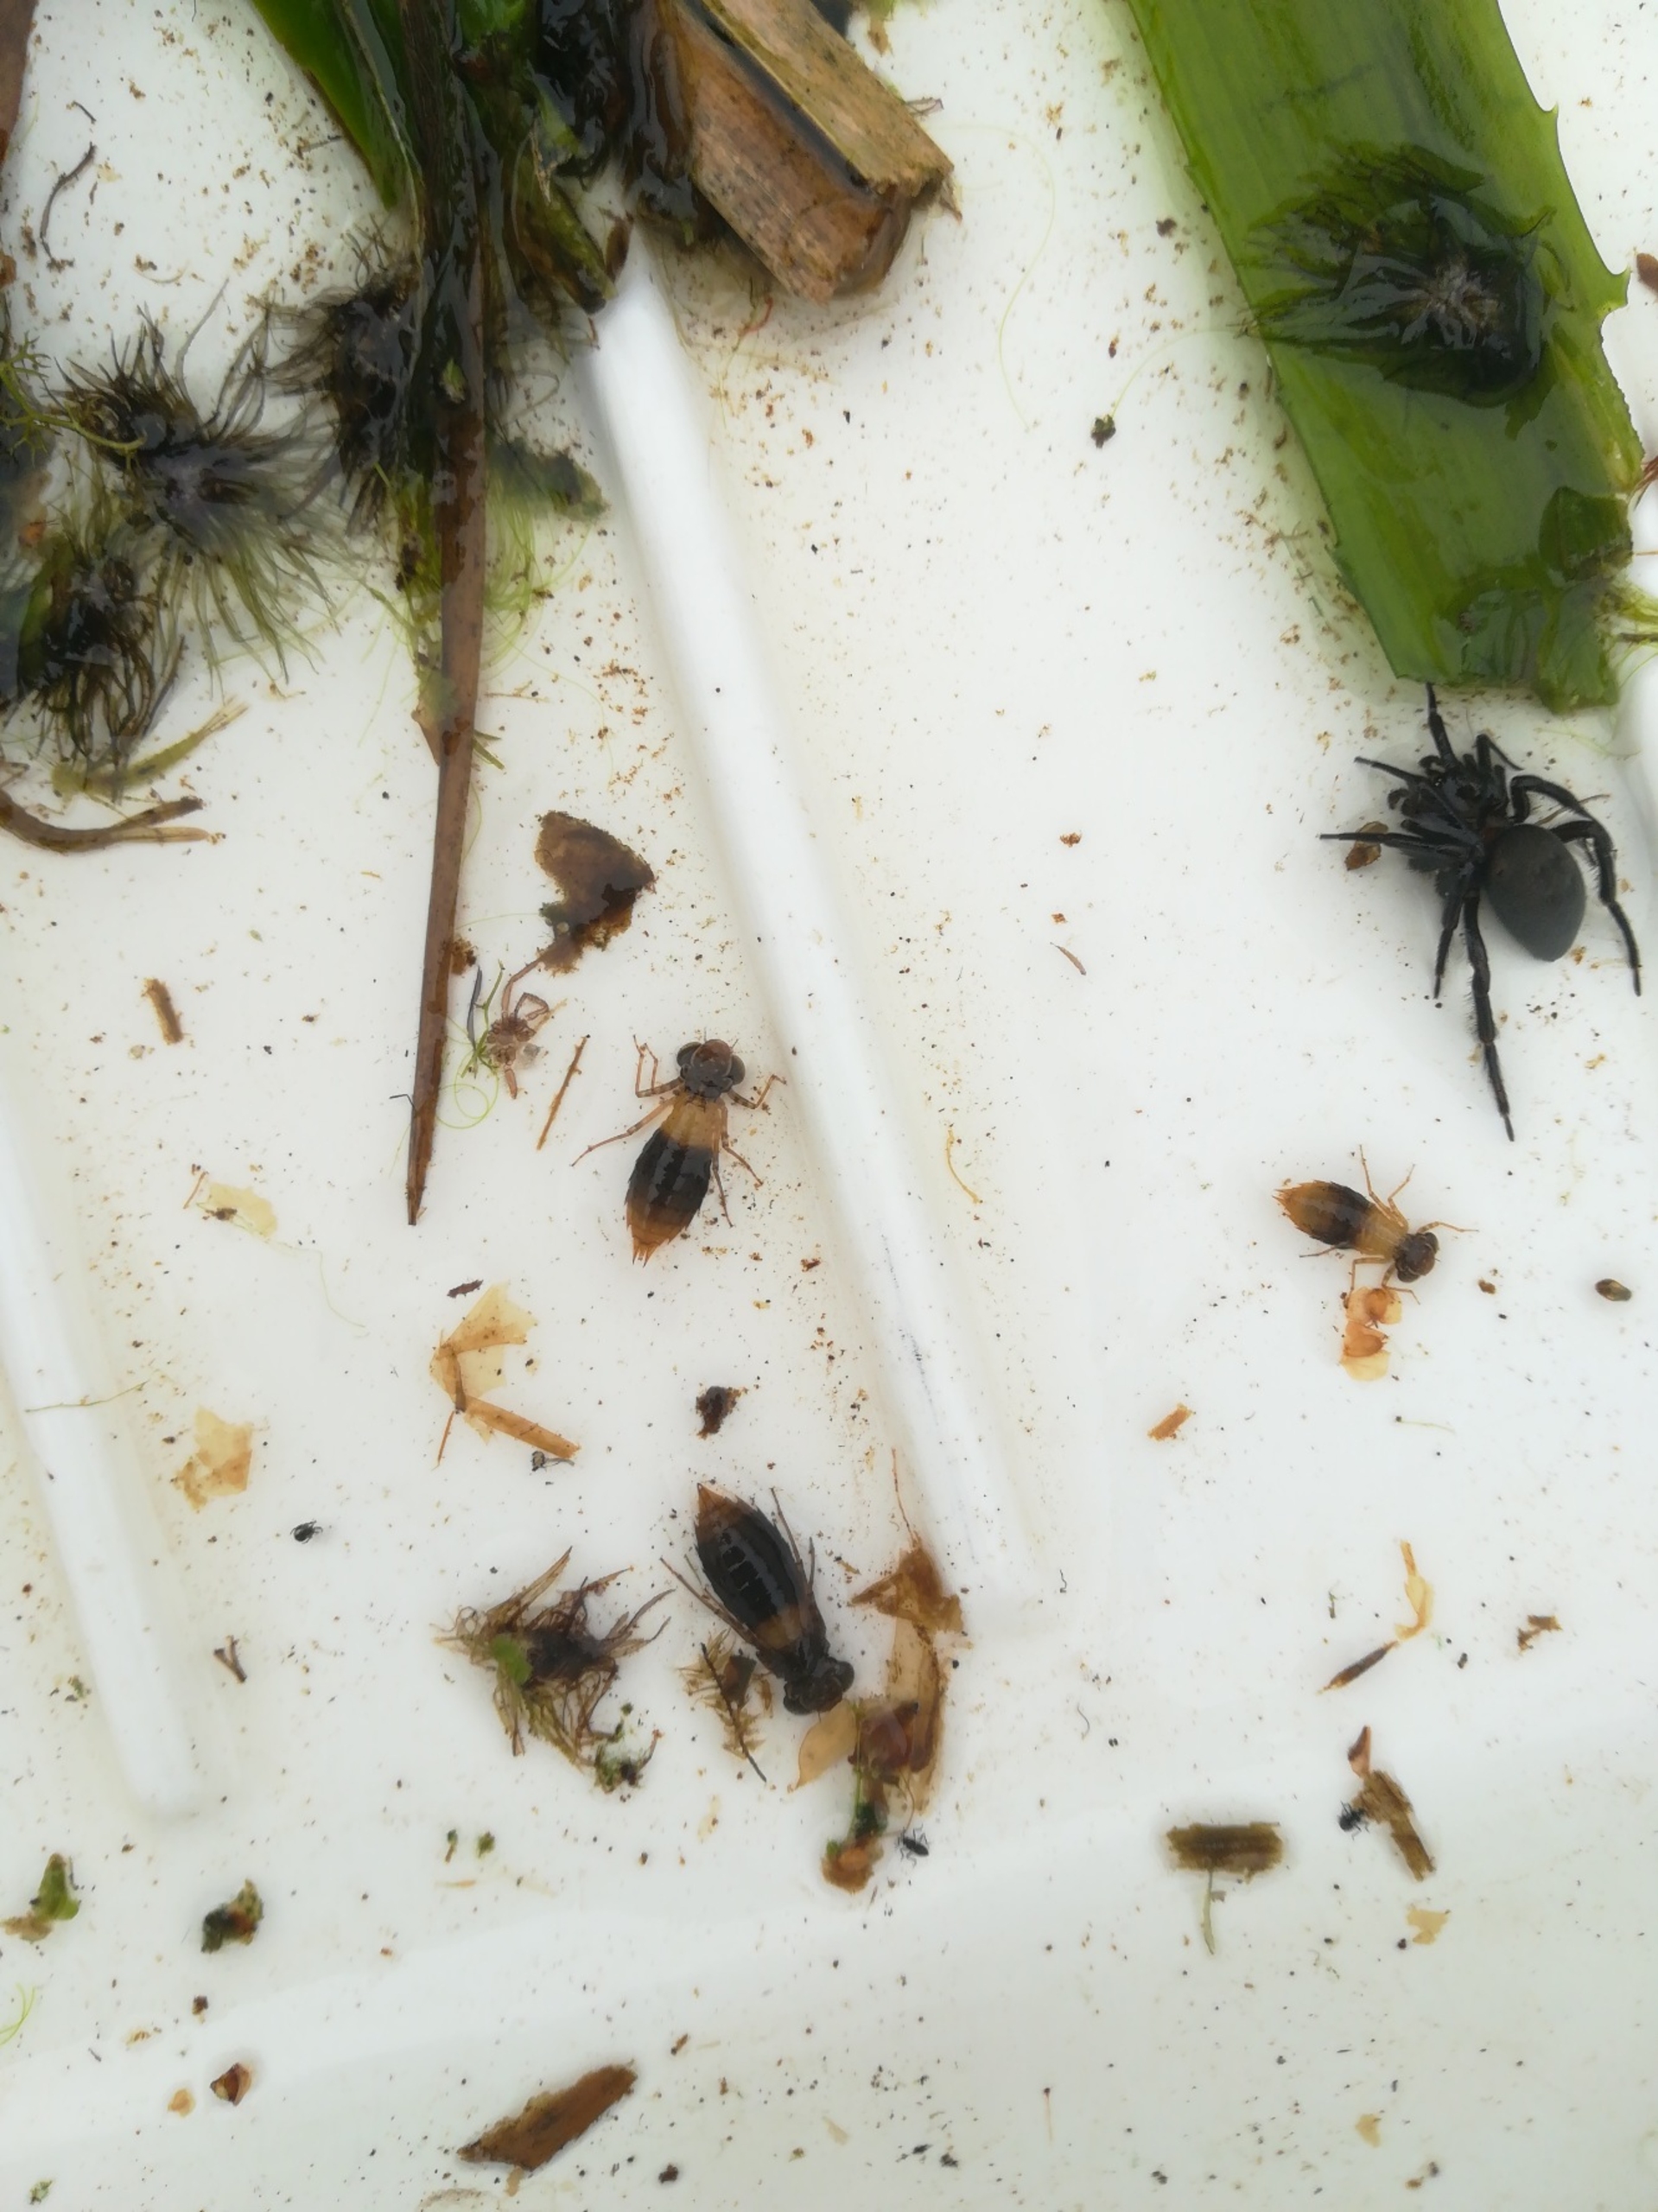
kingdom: Animalia
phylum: Arthropoda
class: Insecta
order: Odonata
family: Aeshnidae
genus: Aeshna
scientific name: Aeshna isoceles
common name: Kileplet-mosaikguldsmed
